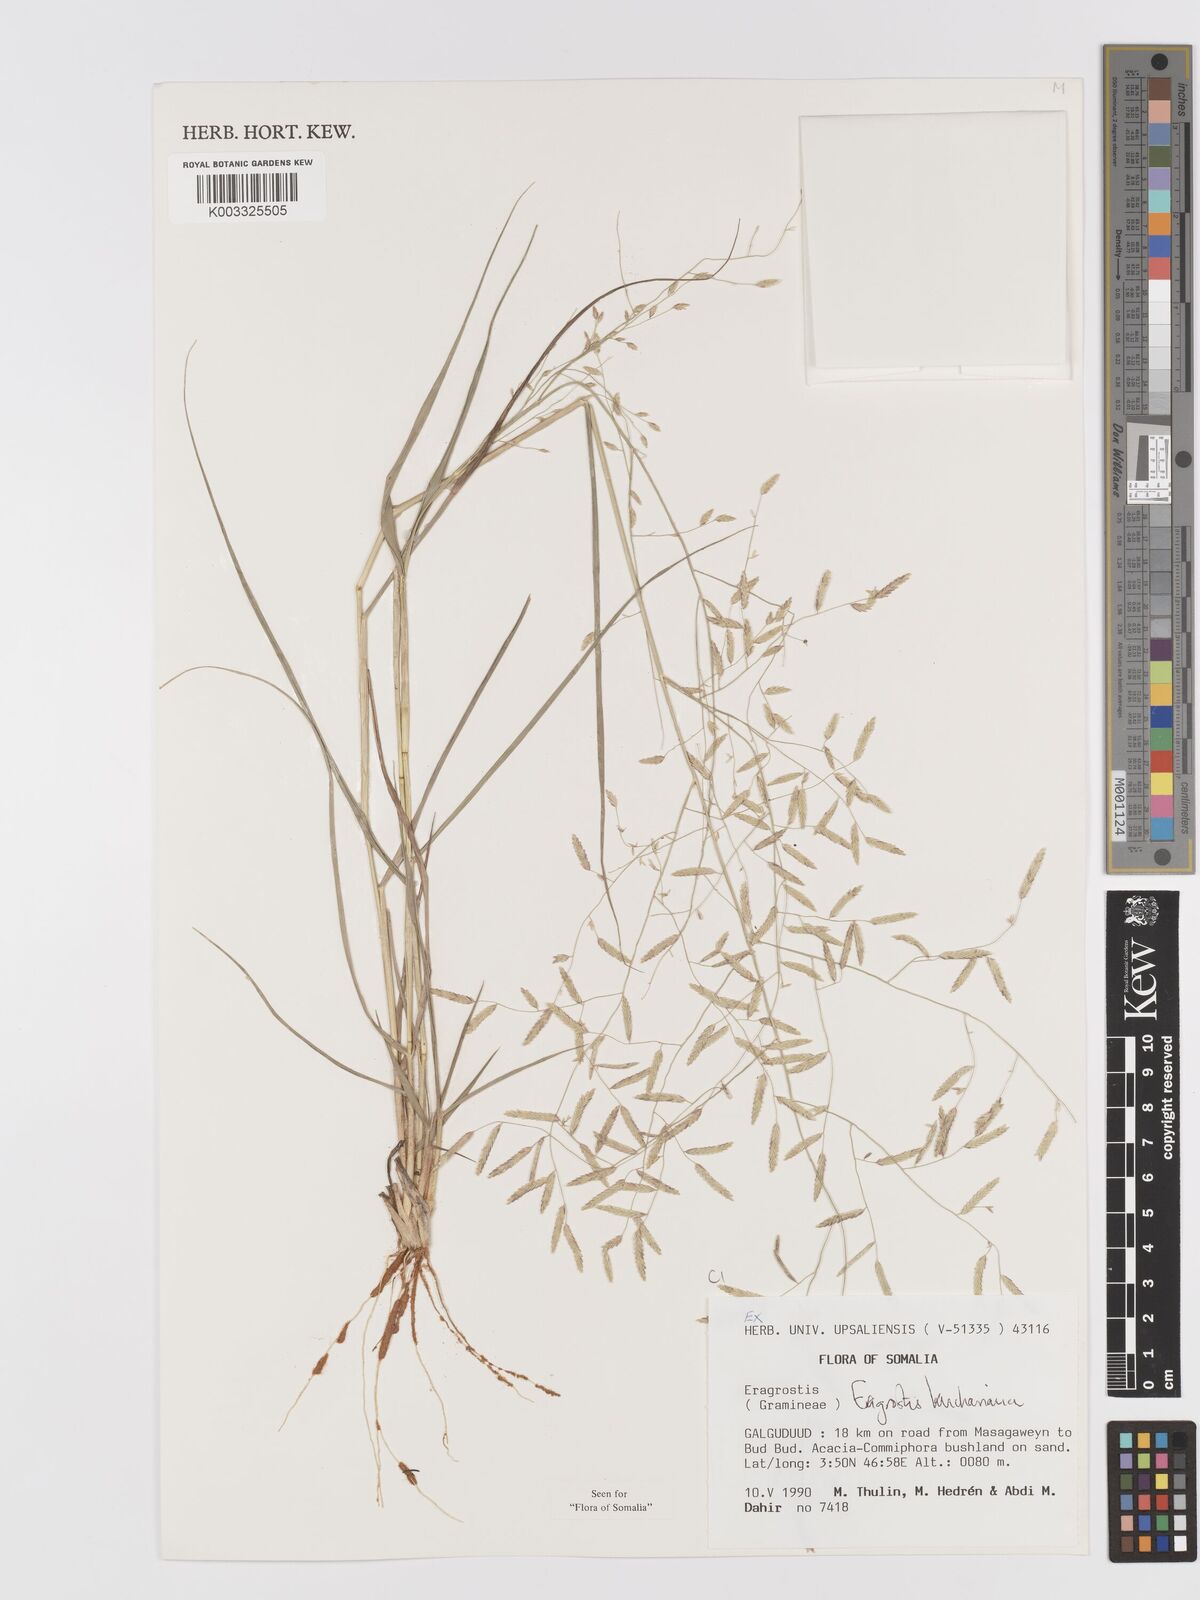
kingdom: Plantae
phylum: Tracheophyta
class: Liliopsida
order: Poales
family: Poaceae
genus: Eragrostis
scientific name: Eragrostis kuchariana
